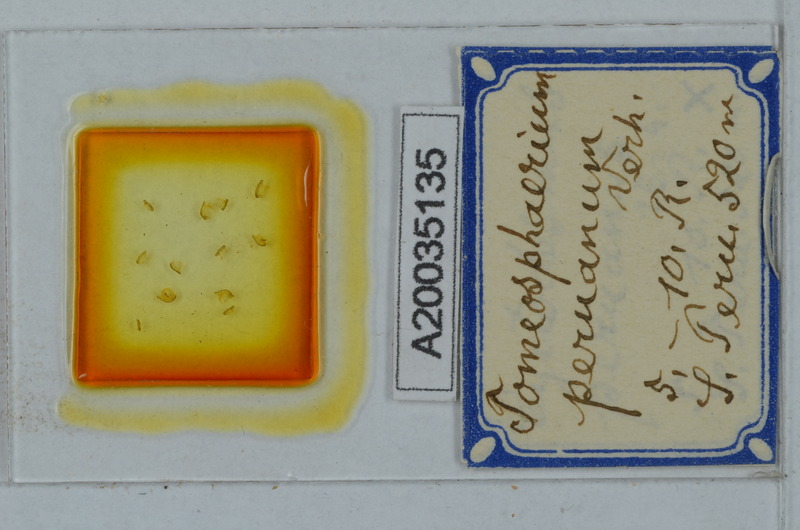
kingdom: Animalia
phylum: Arthropoda
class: Diplopoda
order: Polydesmida
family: Oniscodesmidae
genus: Tomeosphaerium
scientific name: Tomeosphaerium
